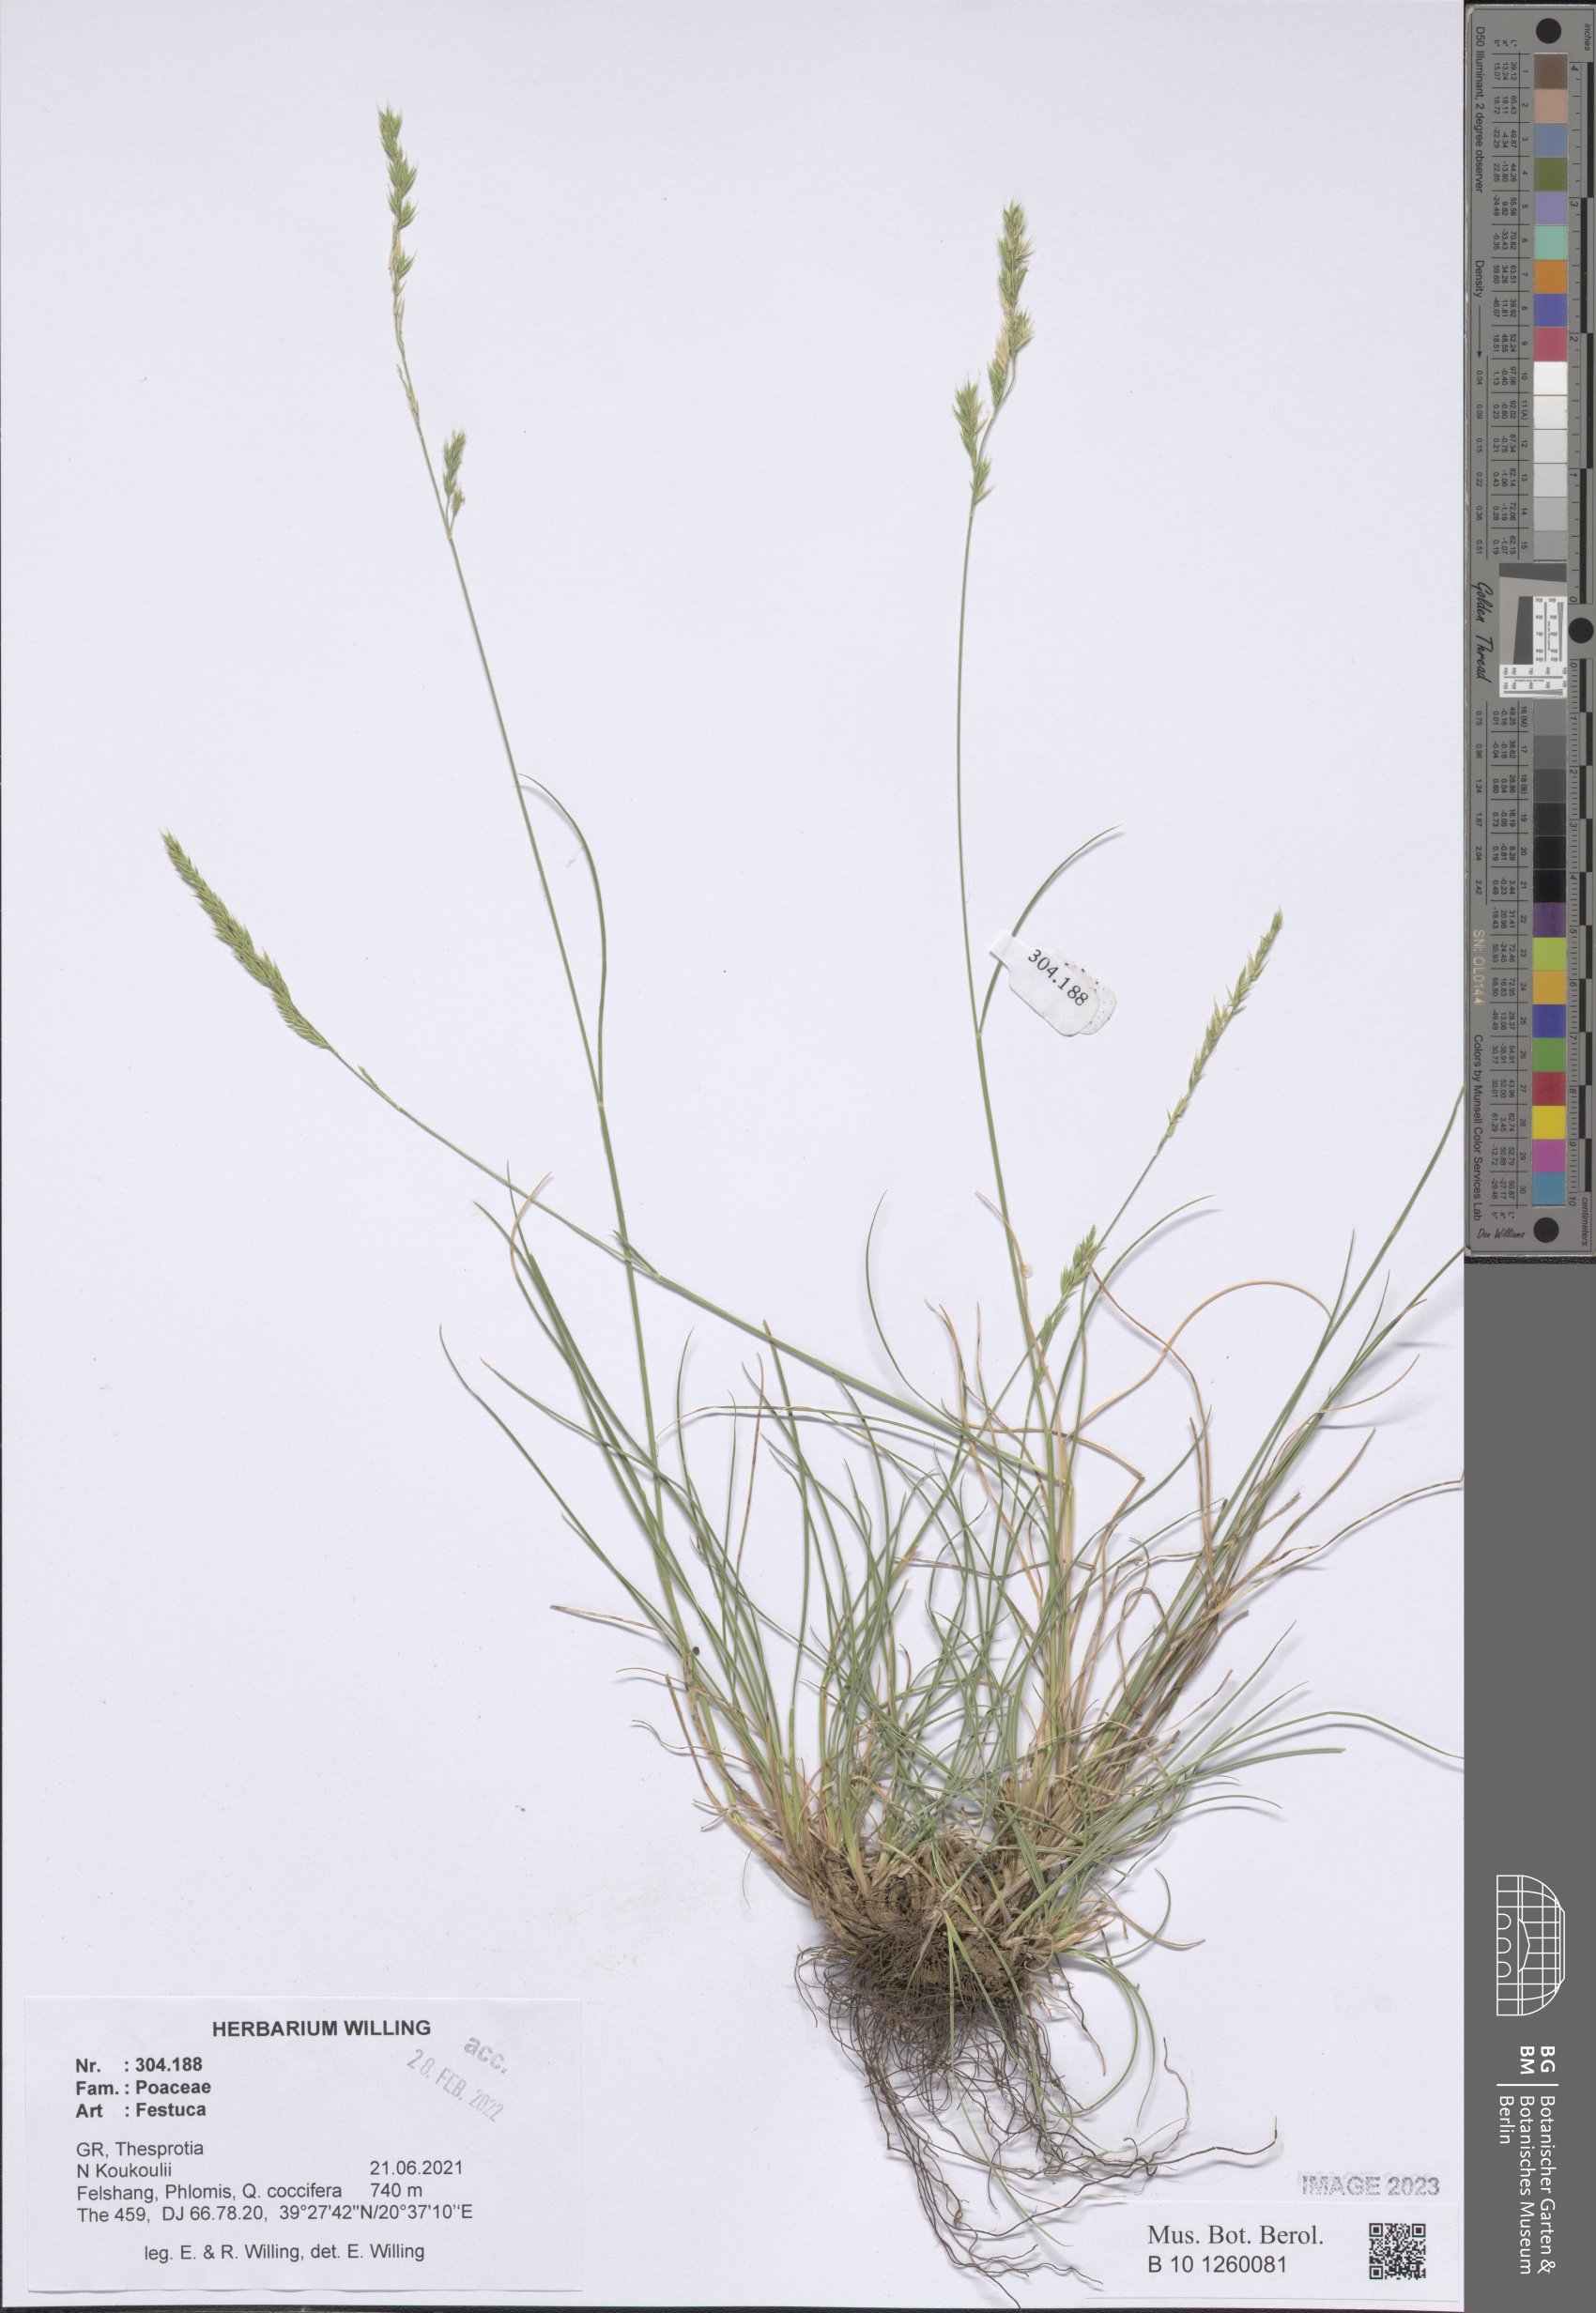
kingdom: Plantae
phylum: Tracheophyta
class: Liliopsida
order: Poales
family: Poaceae
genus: Festuca
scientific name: Festuca
